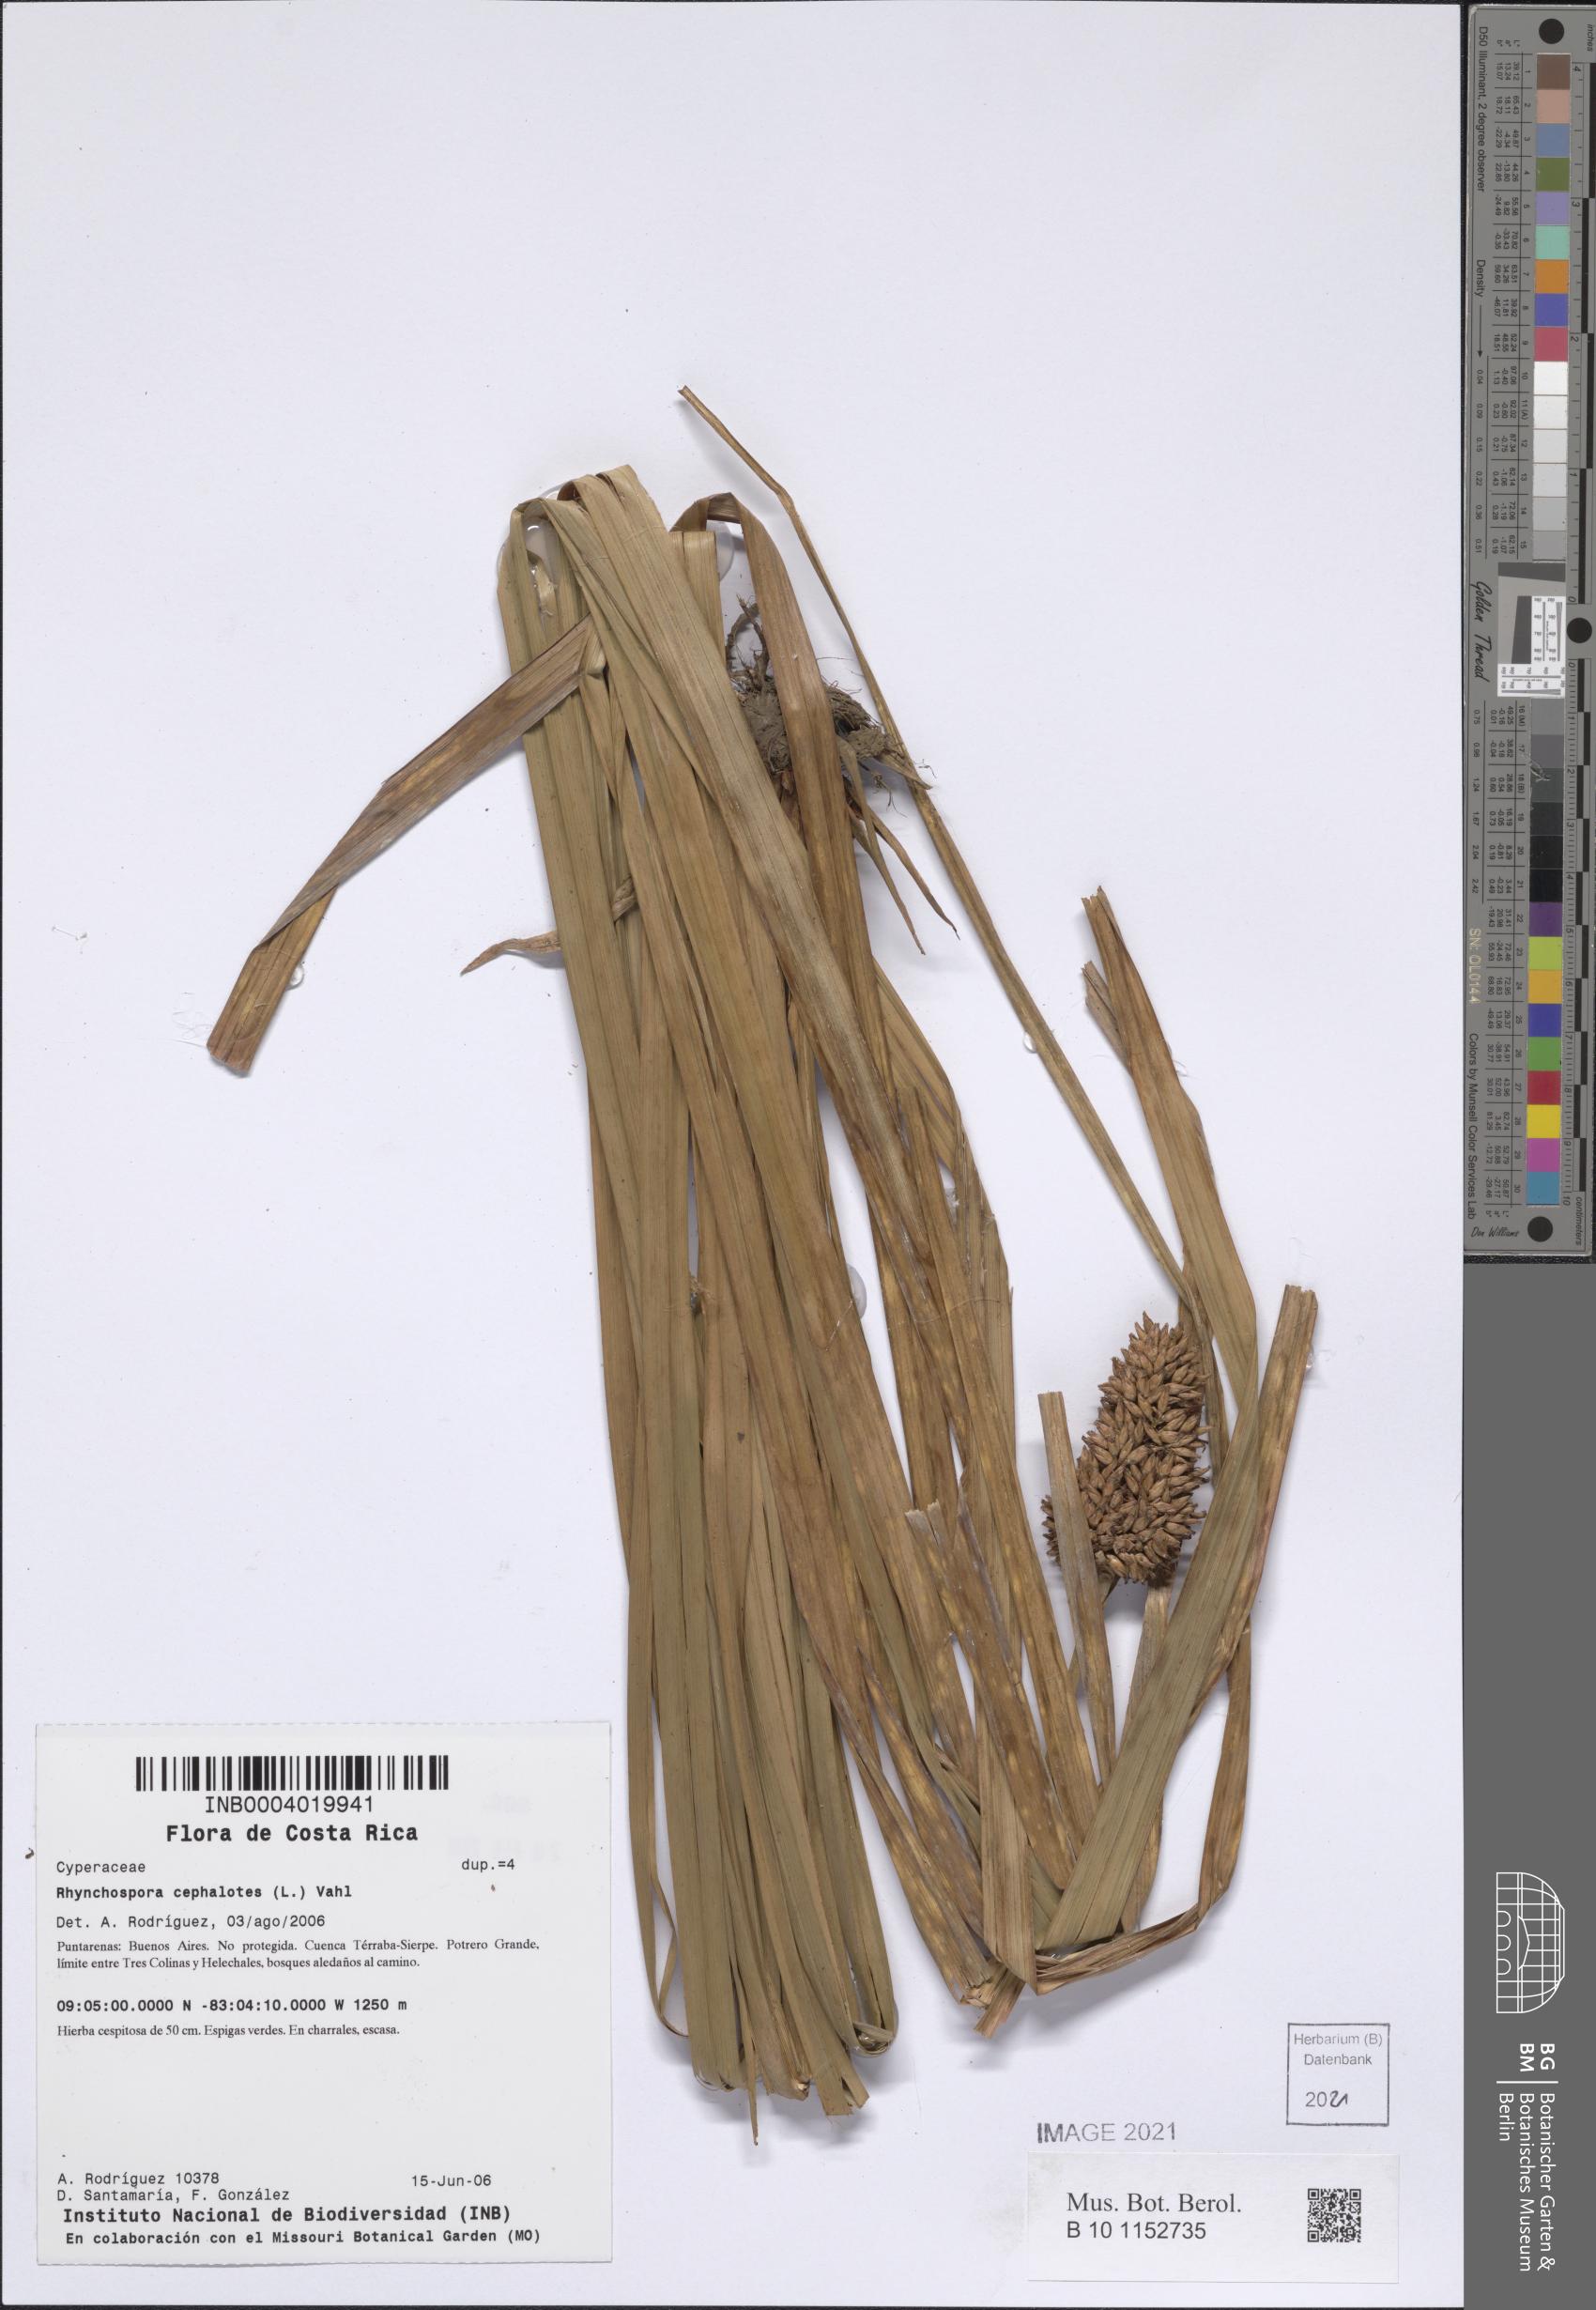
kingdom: Plantae
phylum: Tracheophyta
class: Liliopsida
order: Poales
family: Cyperaceae
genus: Rhynchospora
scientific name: Rhynchospora cephalotes
